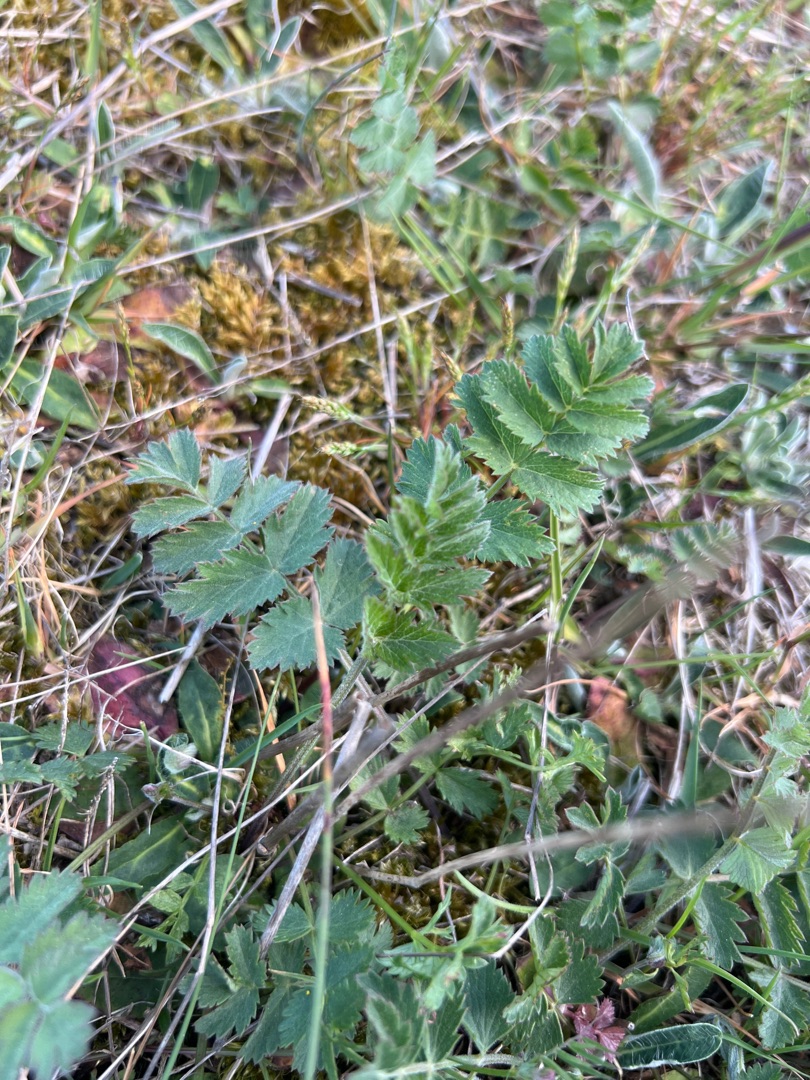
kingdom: Plantae
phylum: Tracheophyta
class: Magnoliopsida
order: Apiales
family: Apiaceae
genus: Pimpinella
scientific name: Pimpinella saxifraga
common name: Almindelig pimpinelle
